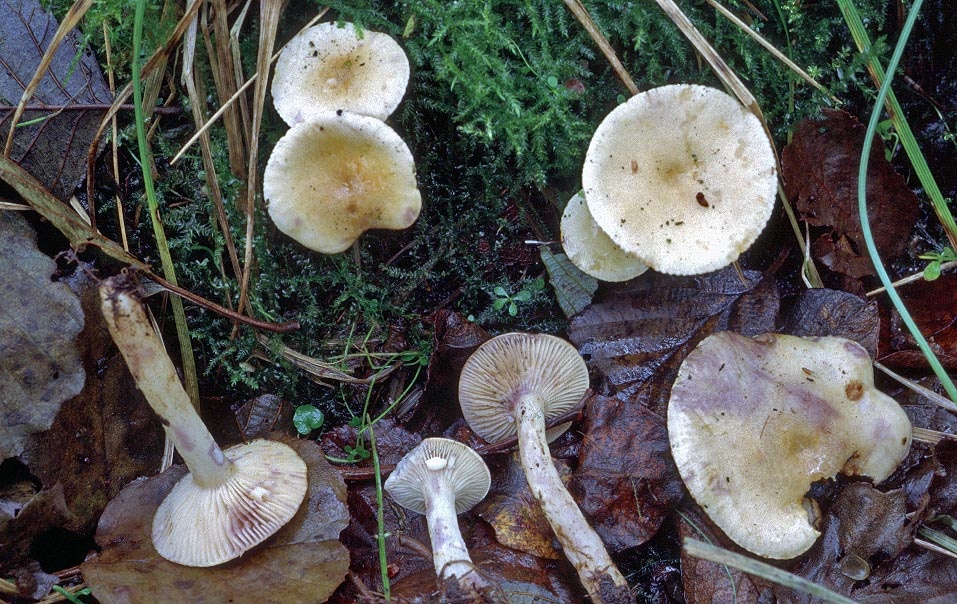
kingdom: Fungi
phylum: Basidiomycota
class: Agaricomycetes
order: Russulales
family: Russulaceae
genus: Lactarius
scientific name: Lactarius aspideus
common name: pile-mælkehat
